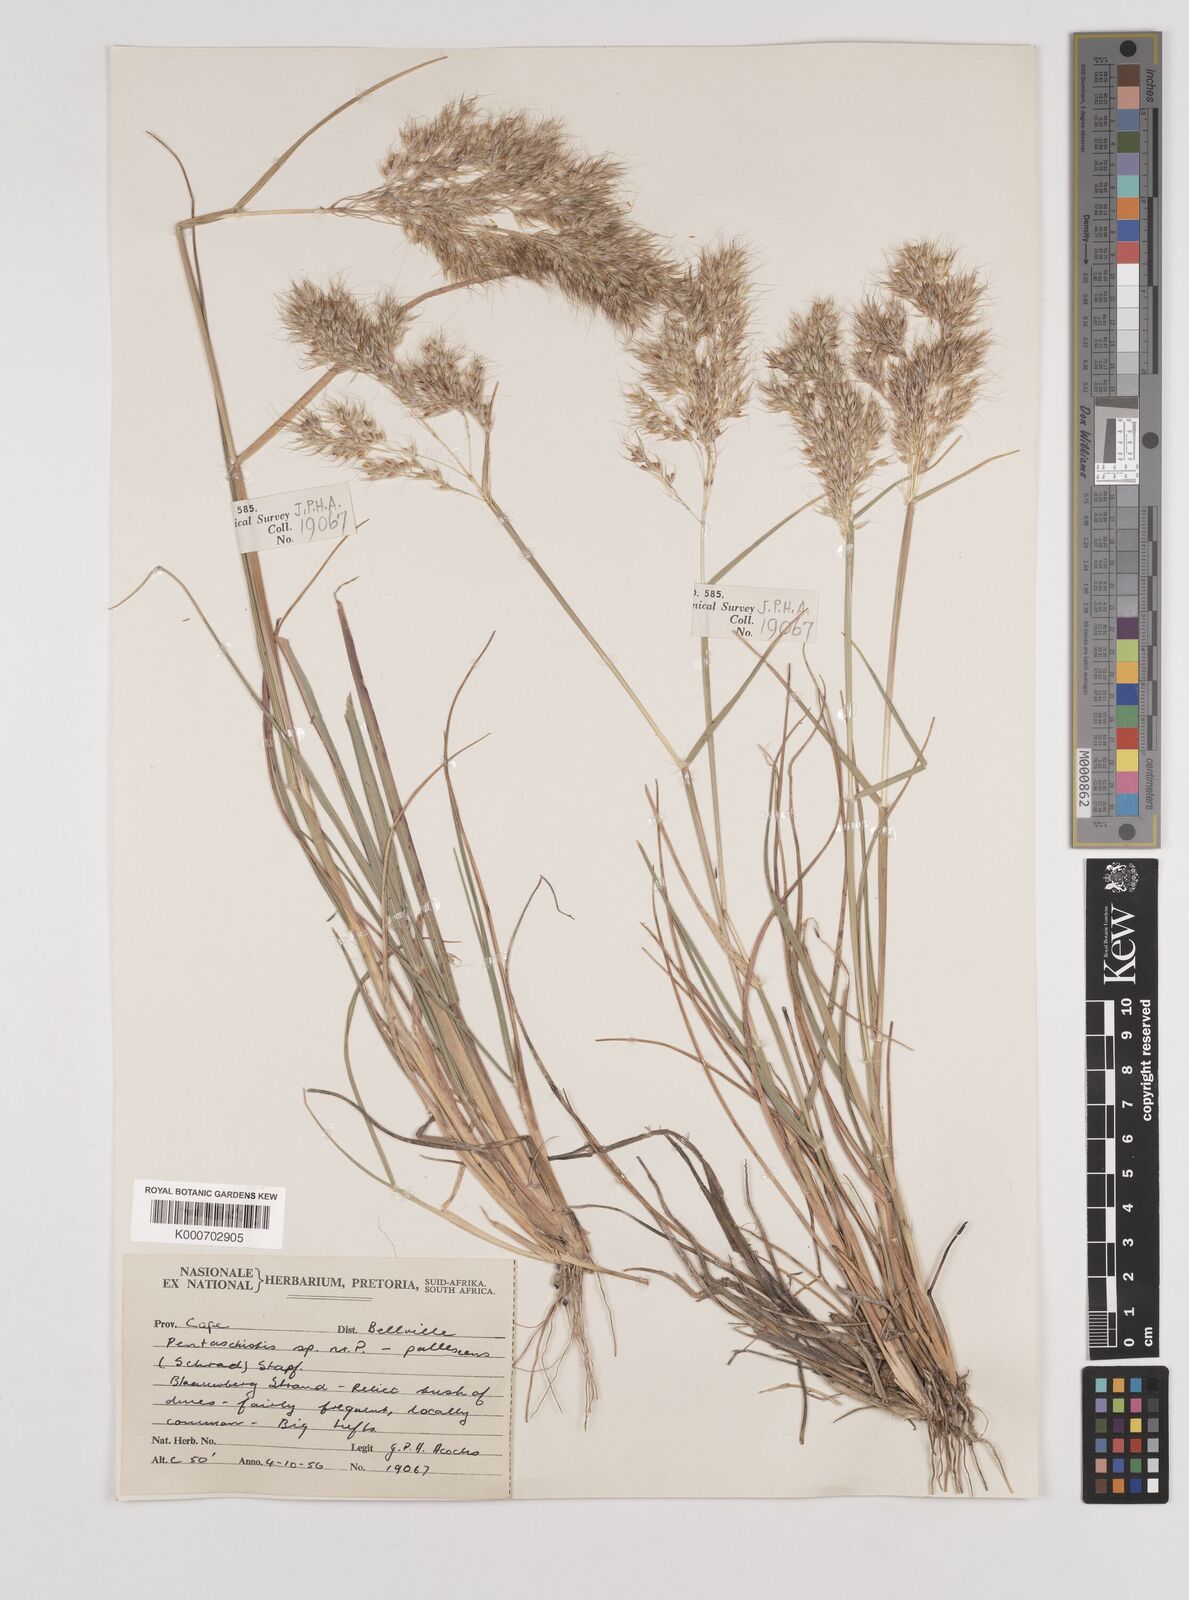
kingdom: Plantae
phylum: Tracheophyta
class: Liliopsida
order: Poales
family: Poaceae
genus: Pentameris
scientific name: Pentameris barbata
